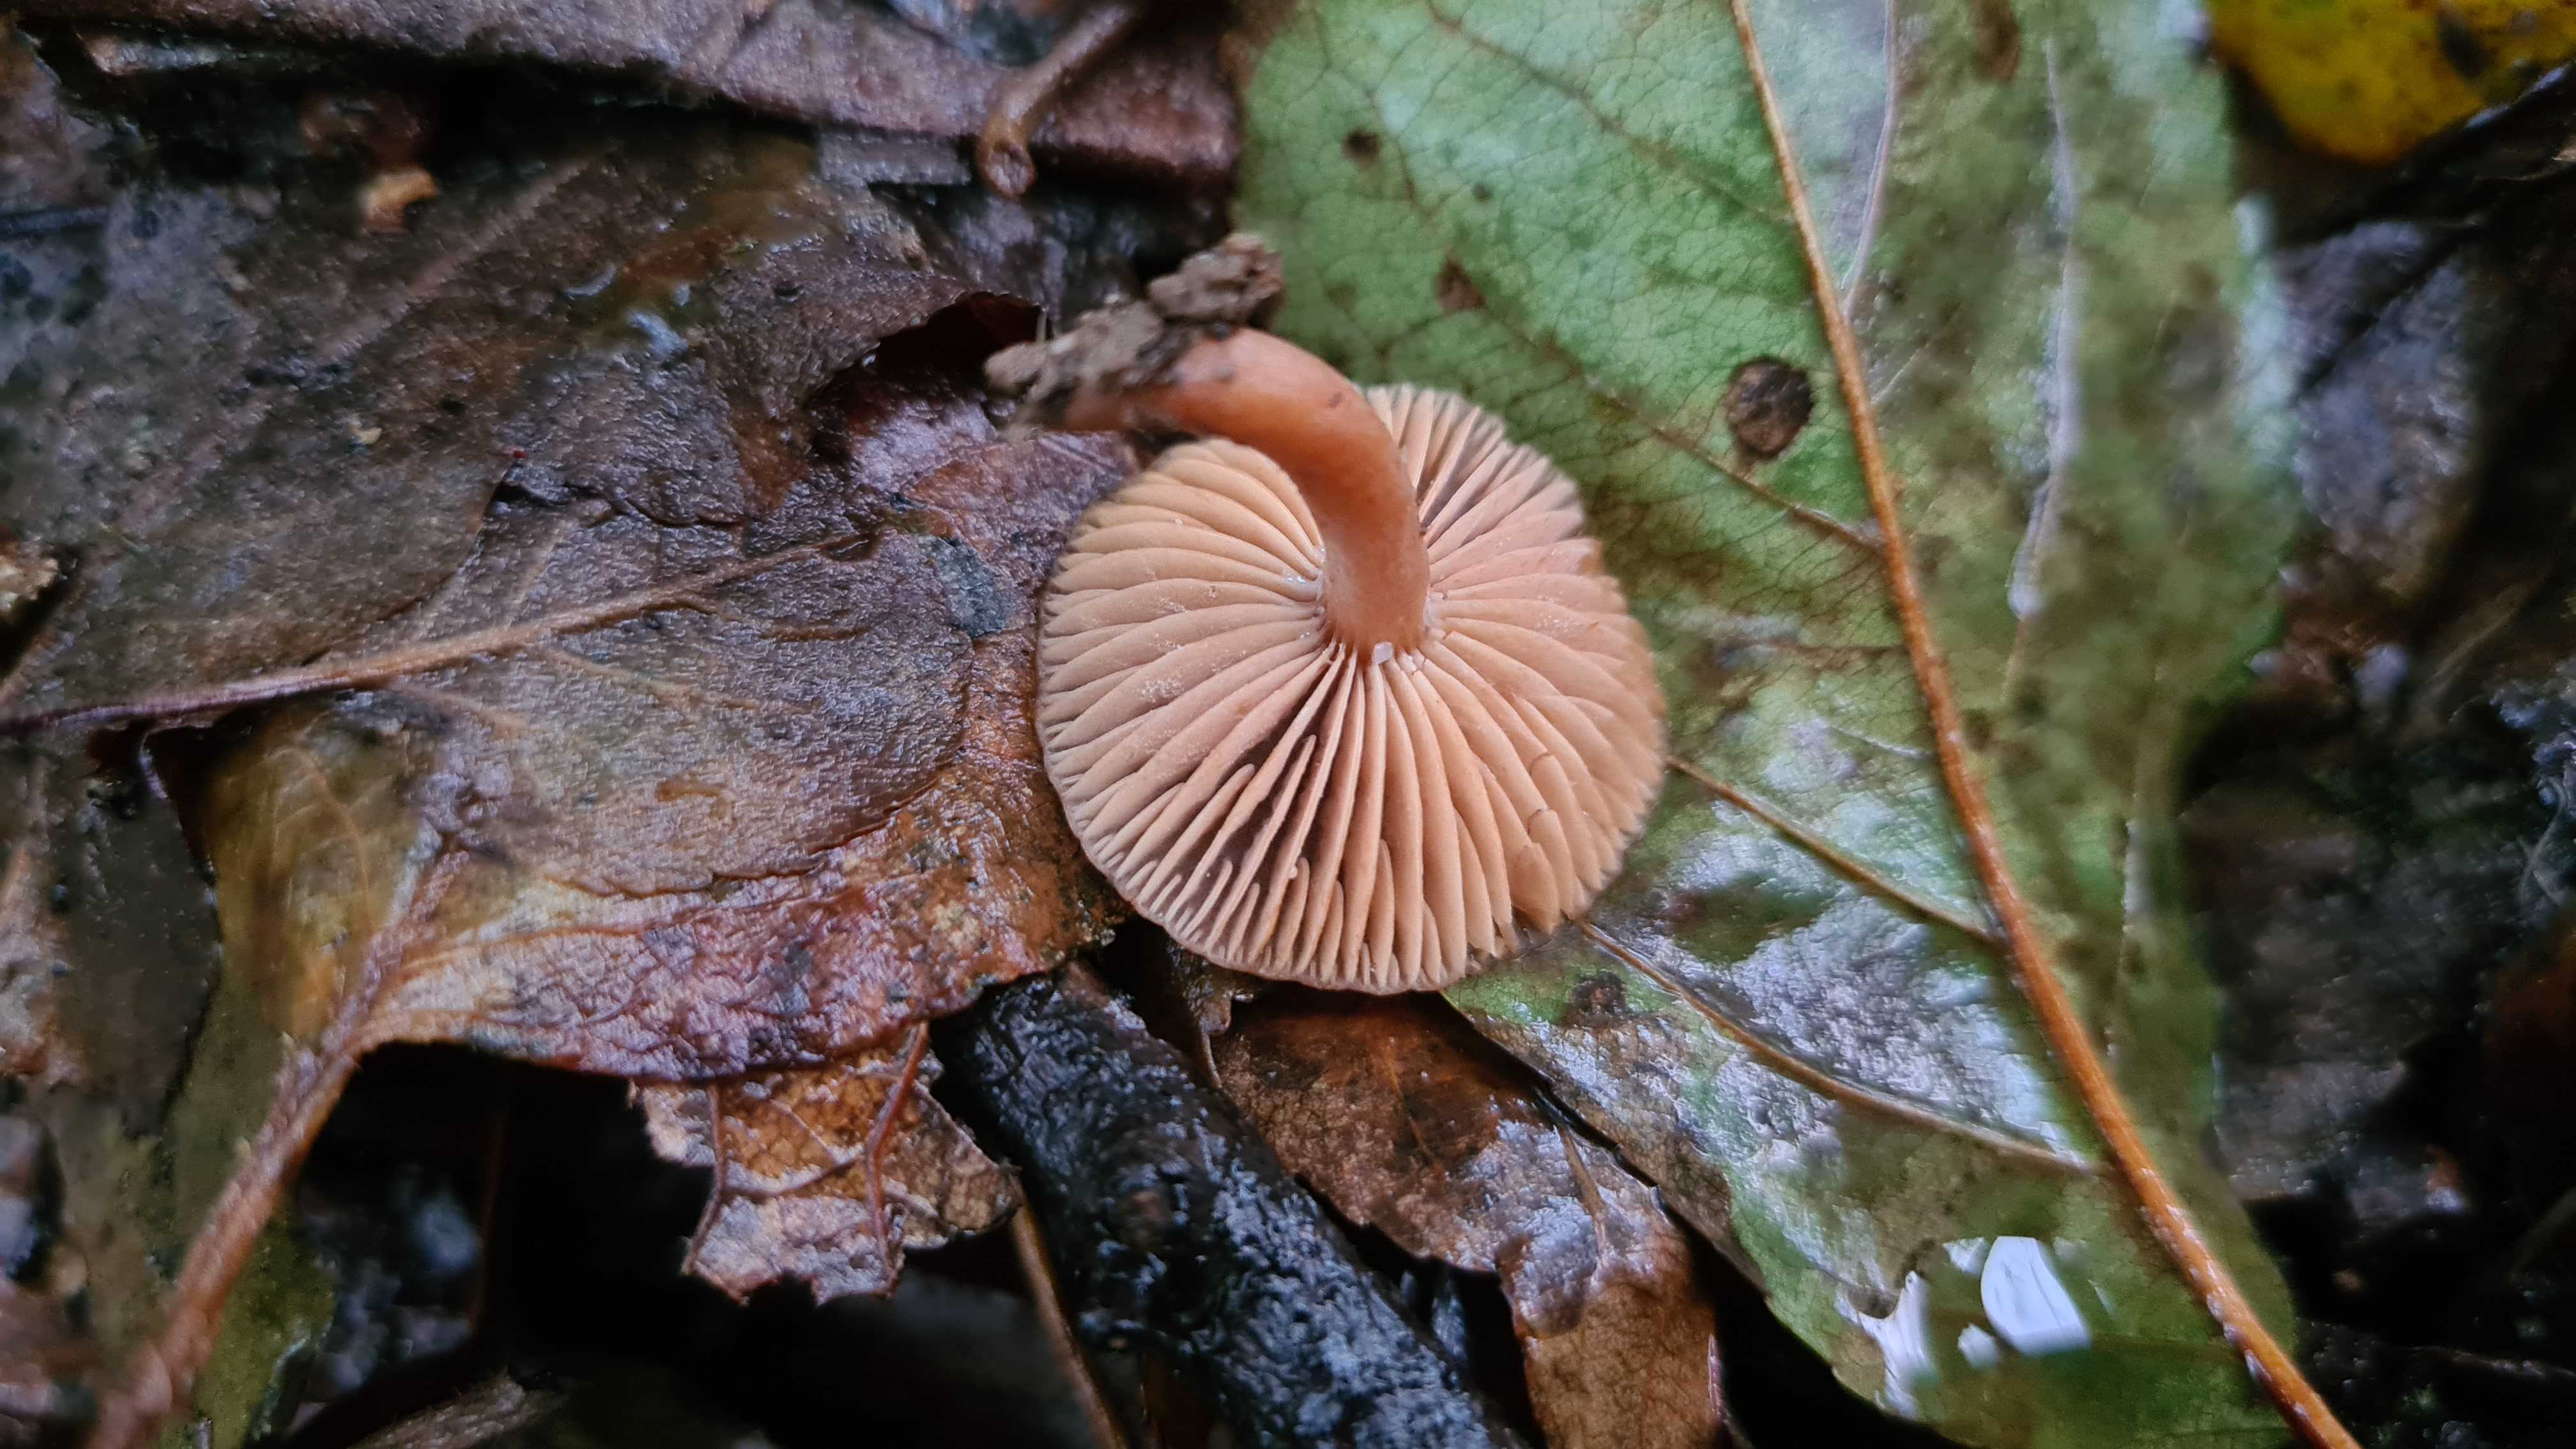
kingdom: Fungi
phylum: Basidiomycota
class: Agaricomycetes
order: Russulales
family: Russulaceae
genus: Lactarius
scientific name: Lactarius
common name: mælkehat
